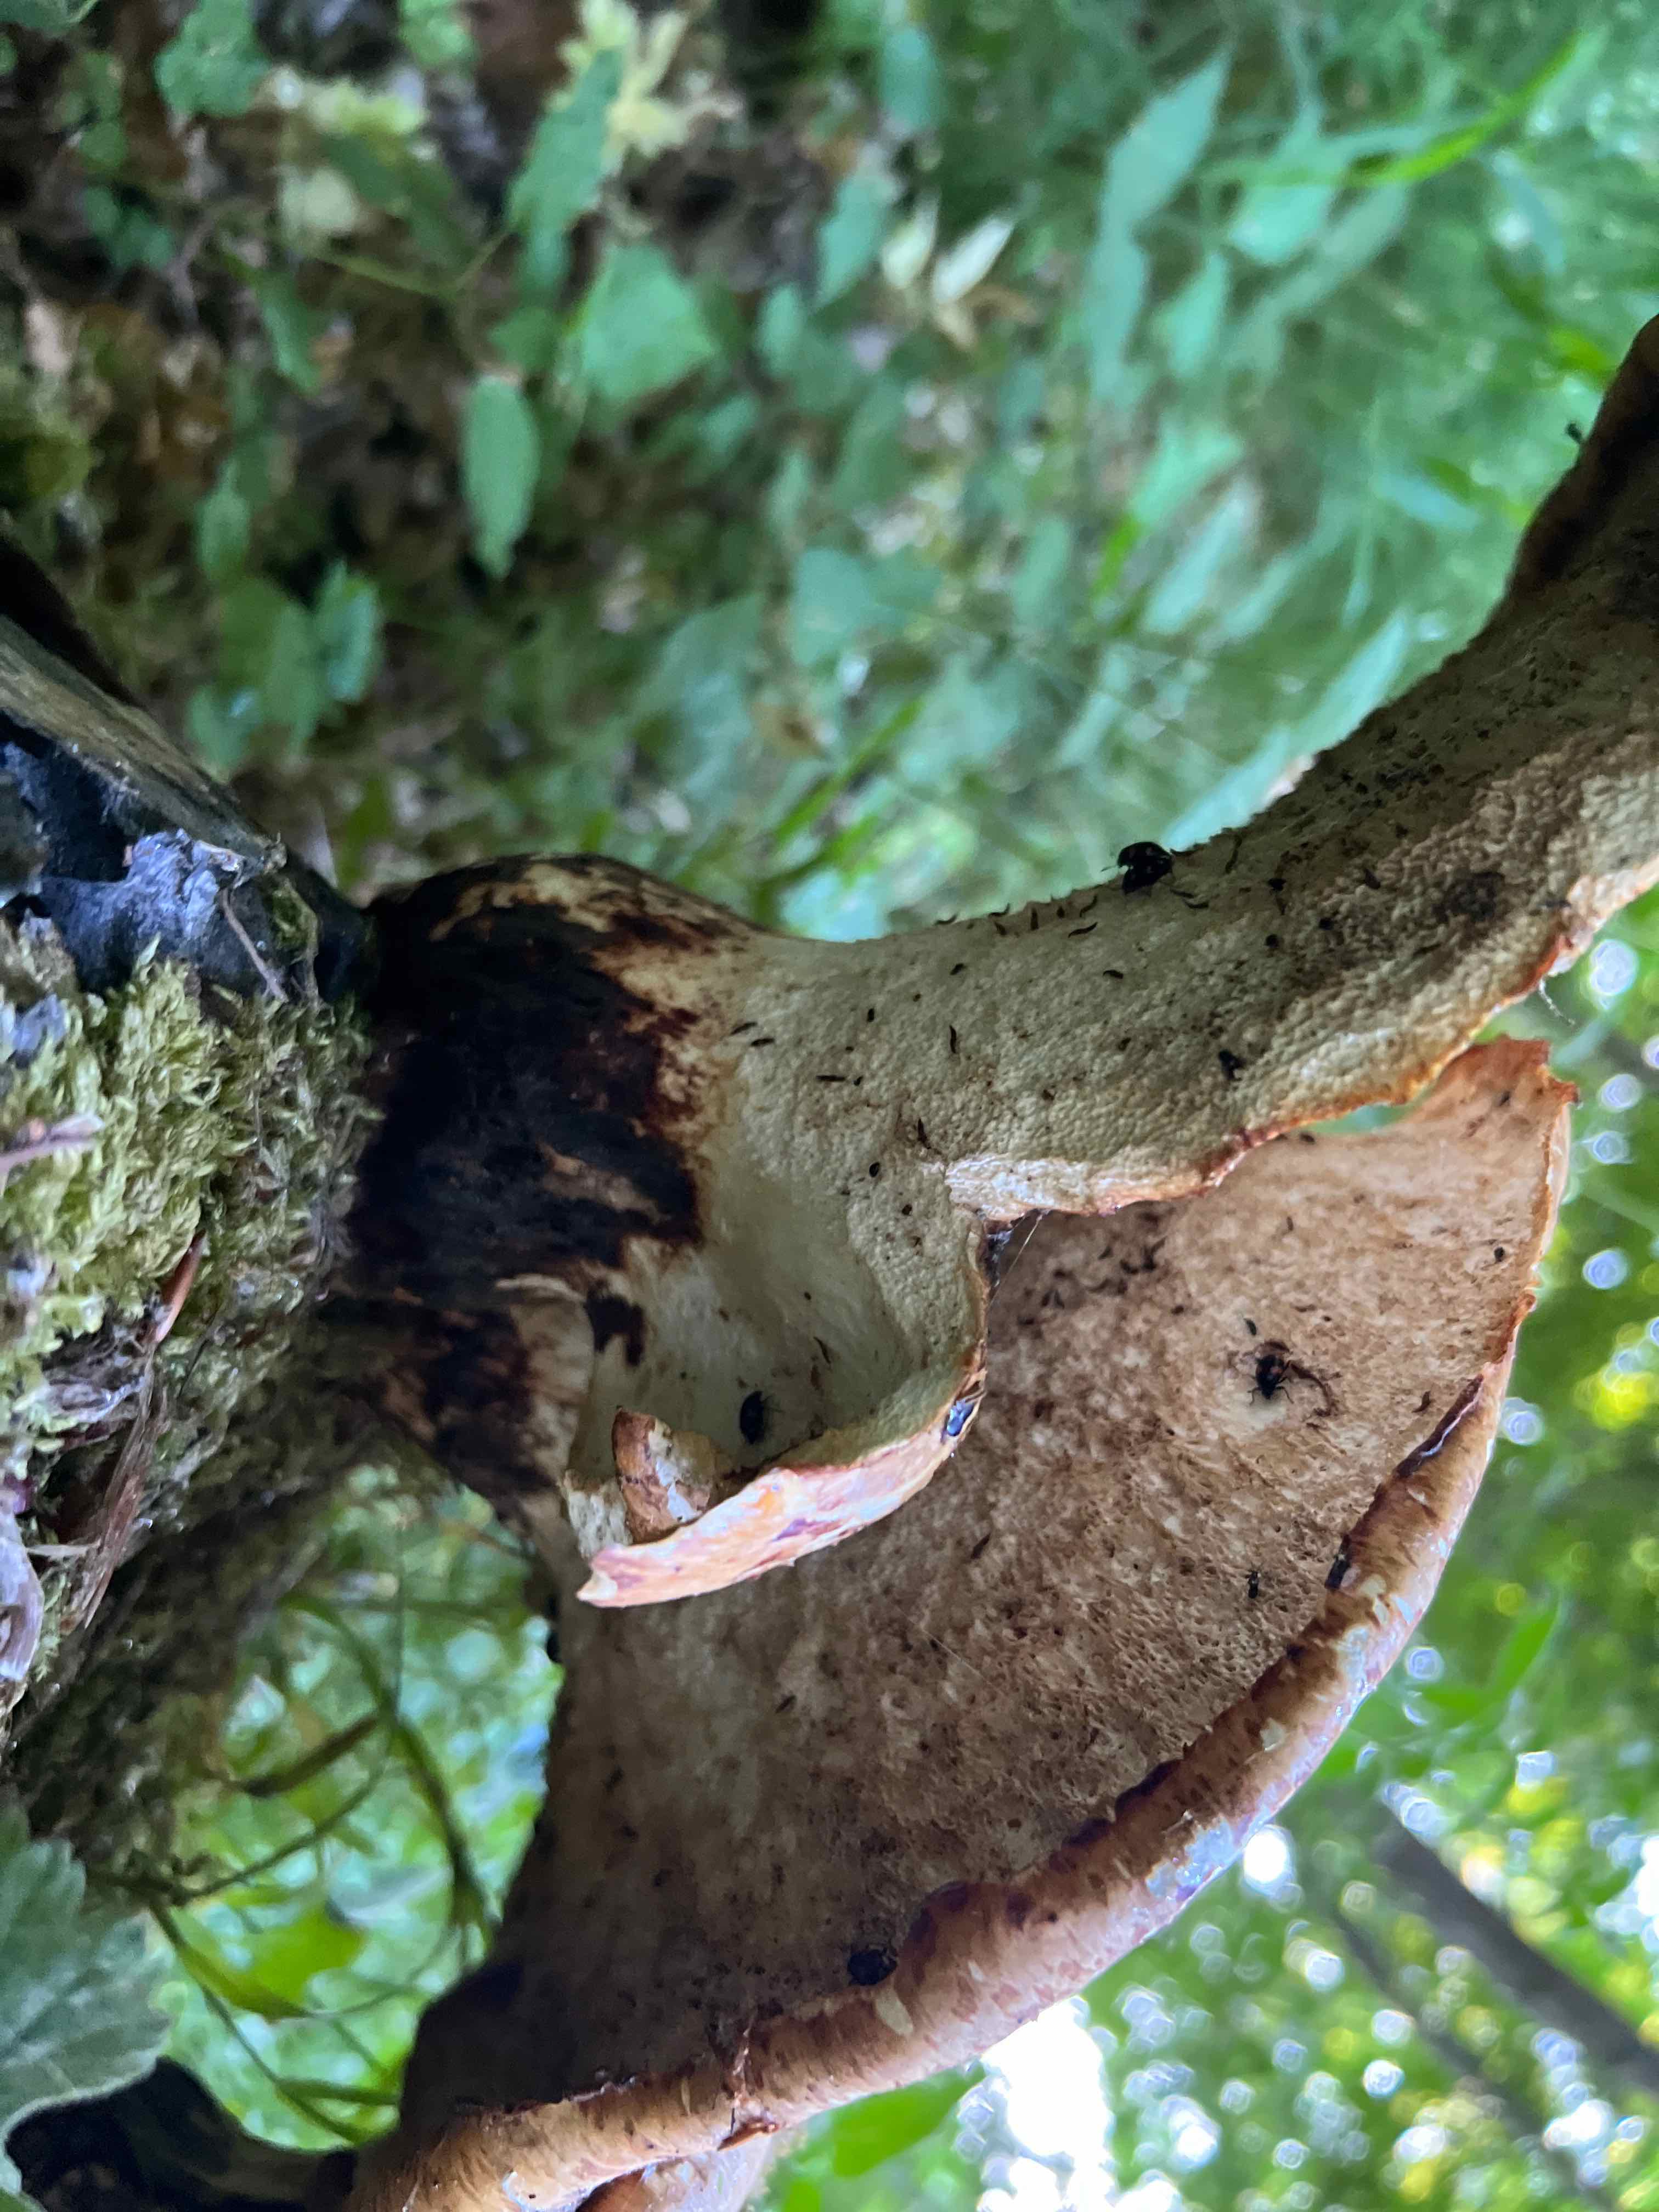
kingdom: Fungi
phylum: Basidiomycota
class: Agaricomycetes
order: Polyporales
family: Polyporaceae
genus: Cerioporus
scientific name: Cerioporus squamosus
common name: skællet stilkporesvamp
